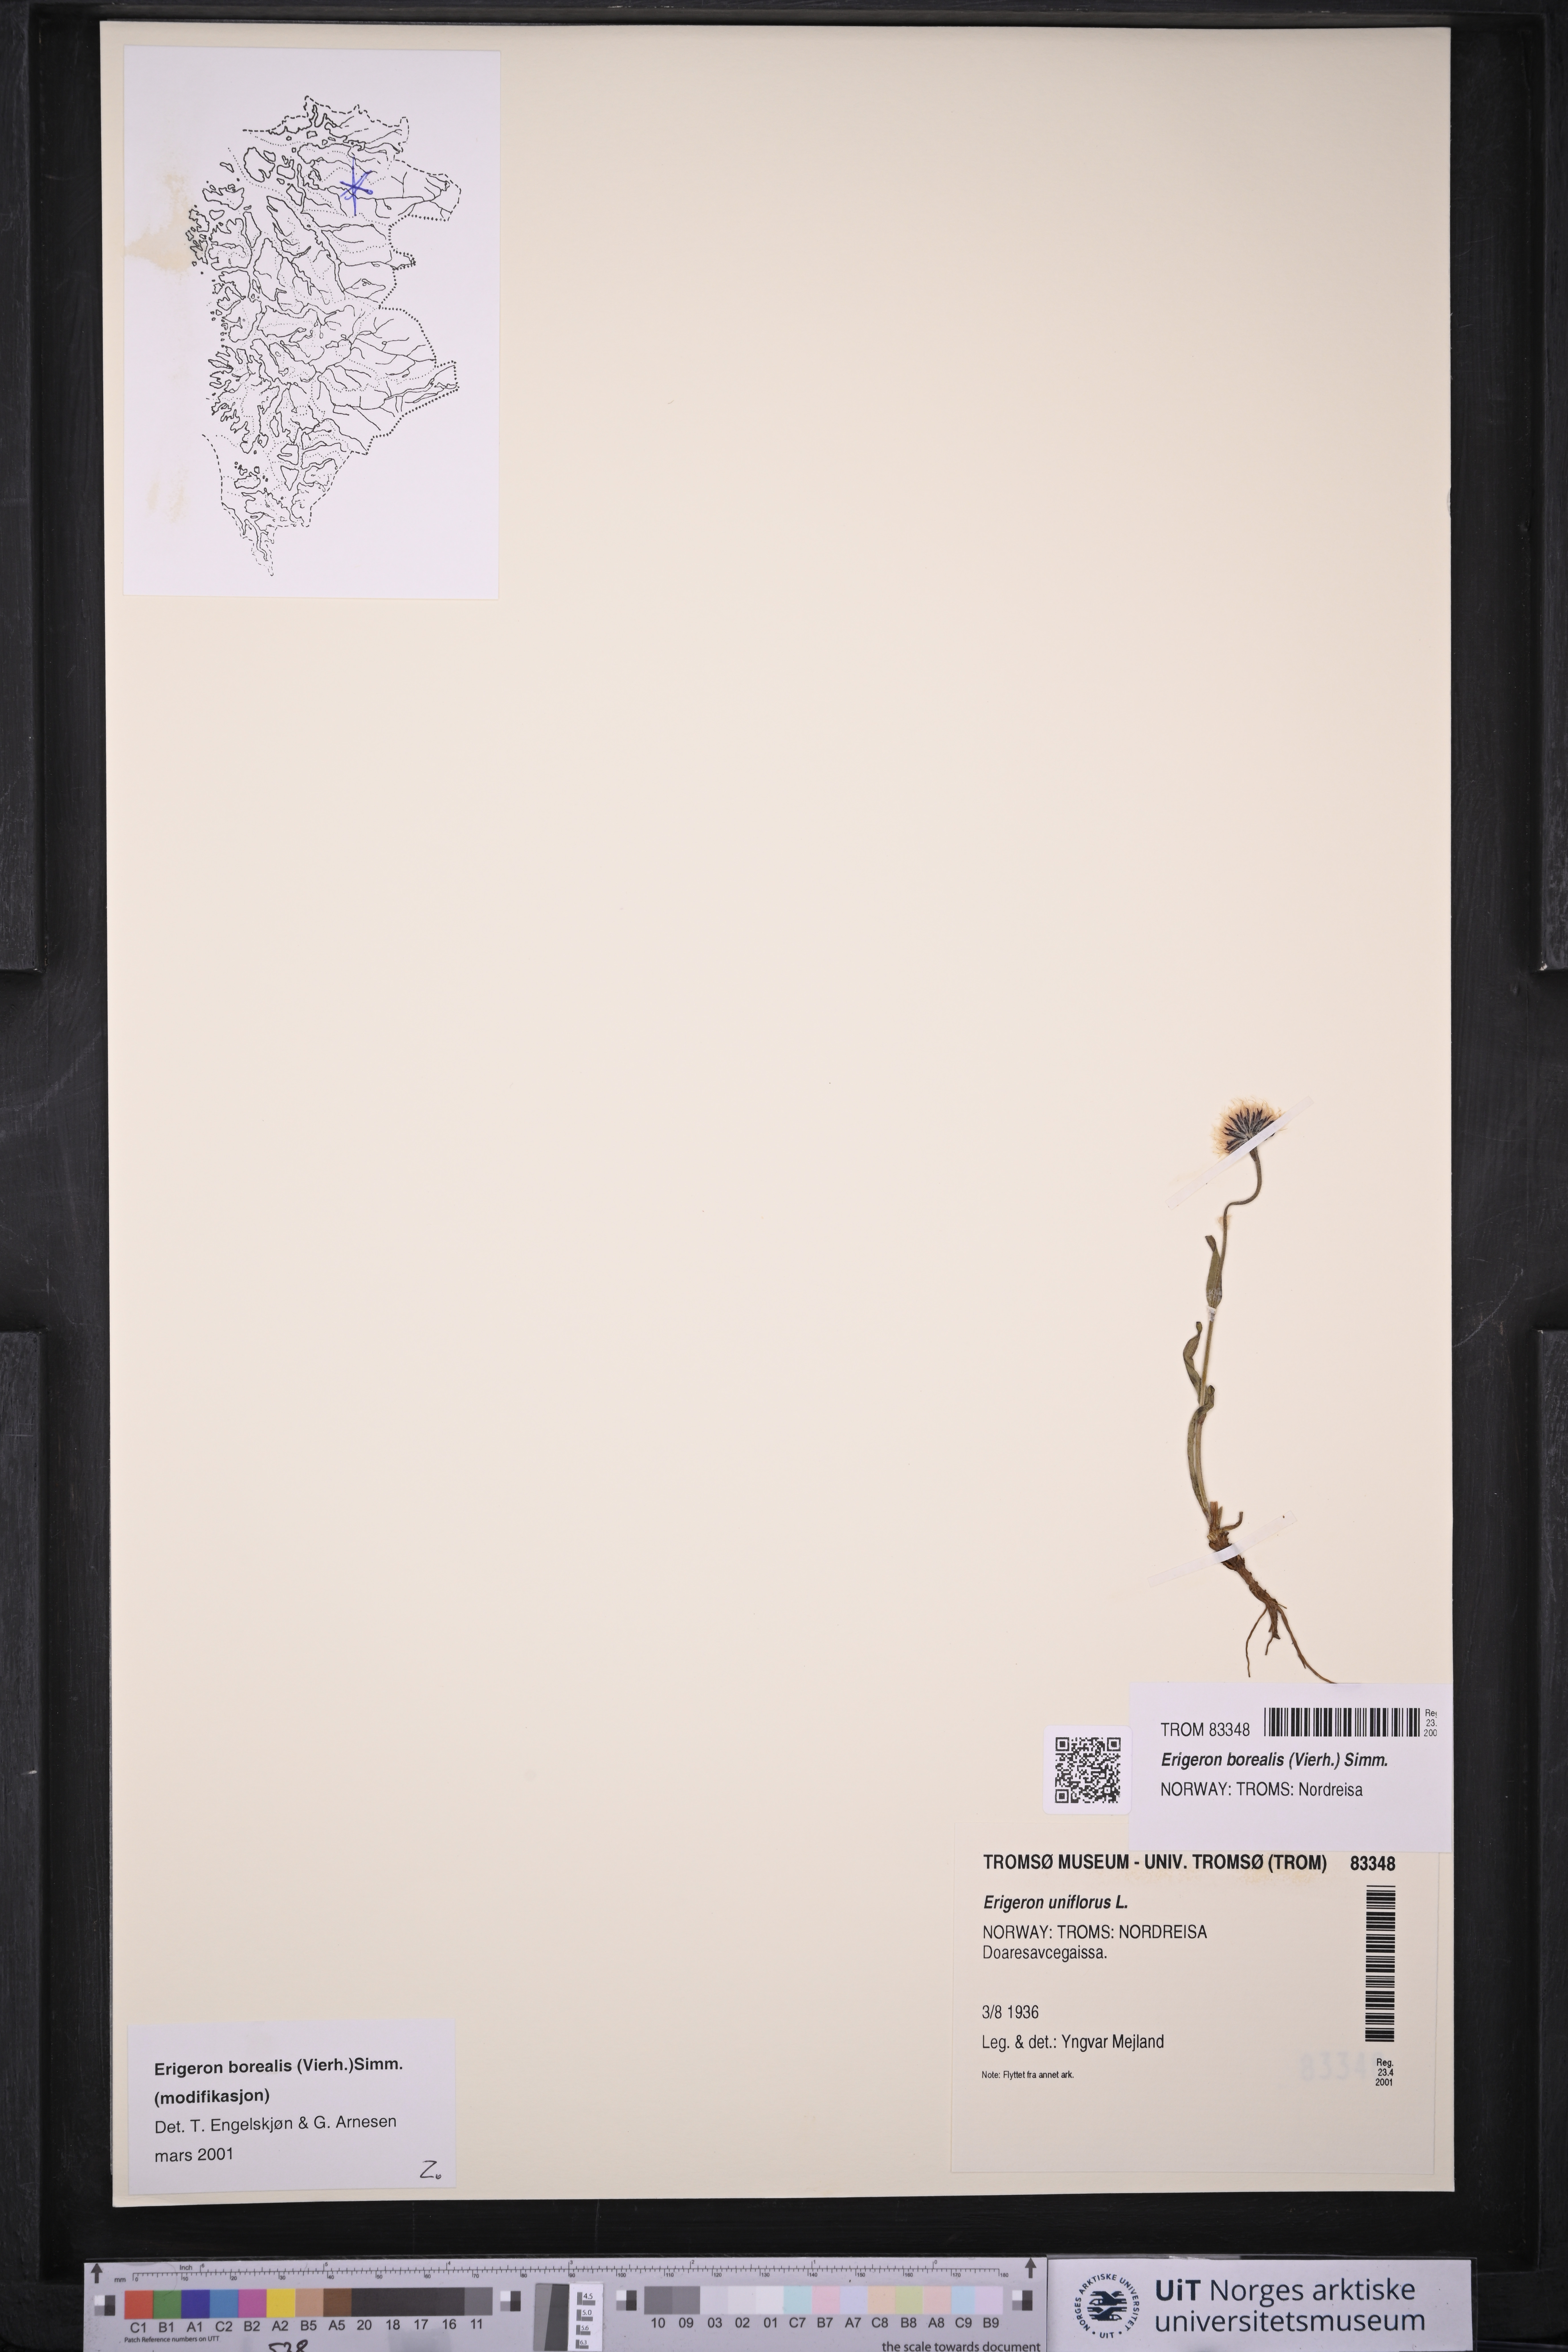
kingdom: Plantae
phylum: Tracheophyta
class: Magnoliopsida
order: Asterales
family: Asteraceae
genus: Erigeron
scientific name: Erigeron borealis
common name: Alpine fleabane
